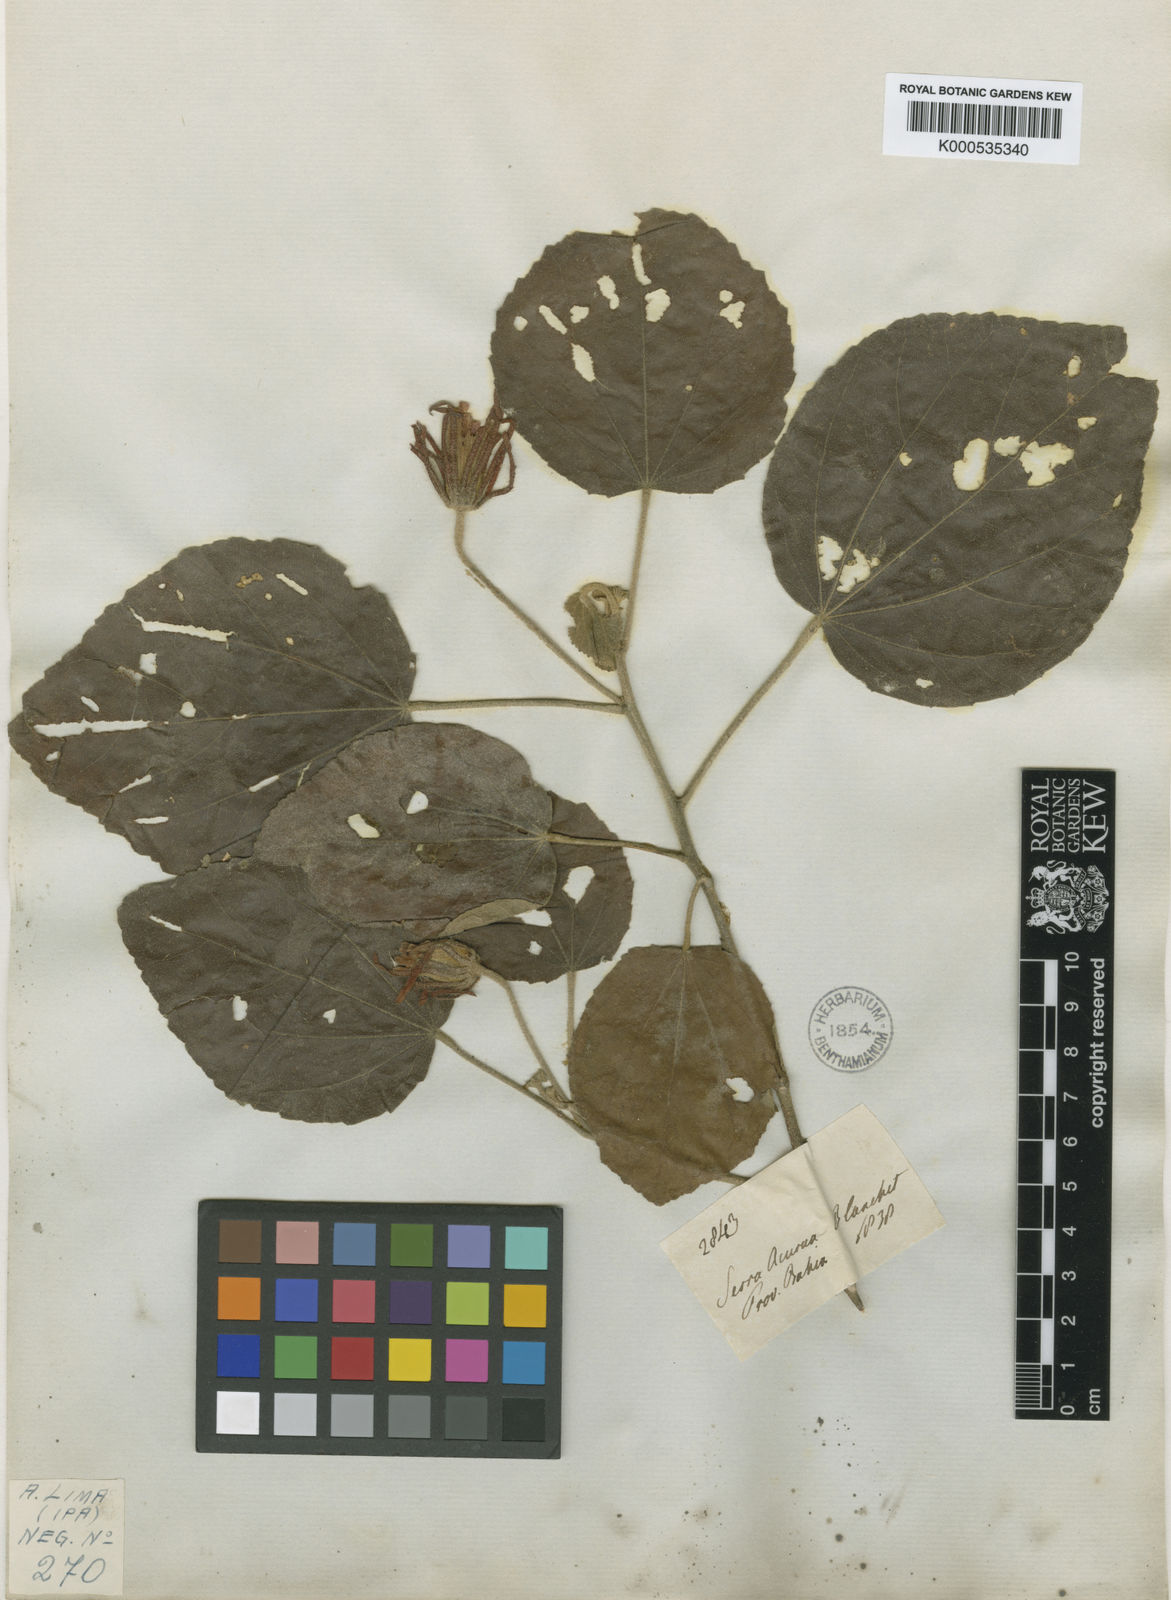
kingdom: Plantae
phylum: Tracheophyta
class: Magnoliopsida
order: Malvales
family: Malvaceae
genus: Pavonia
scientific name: Pavonia
